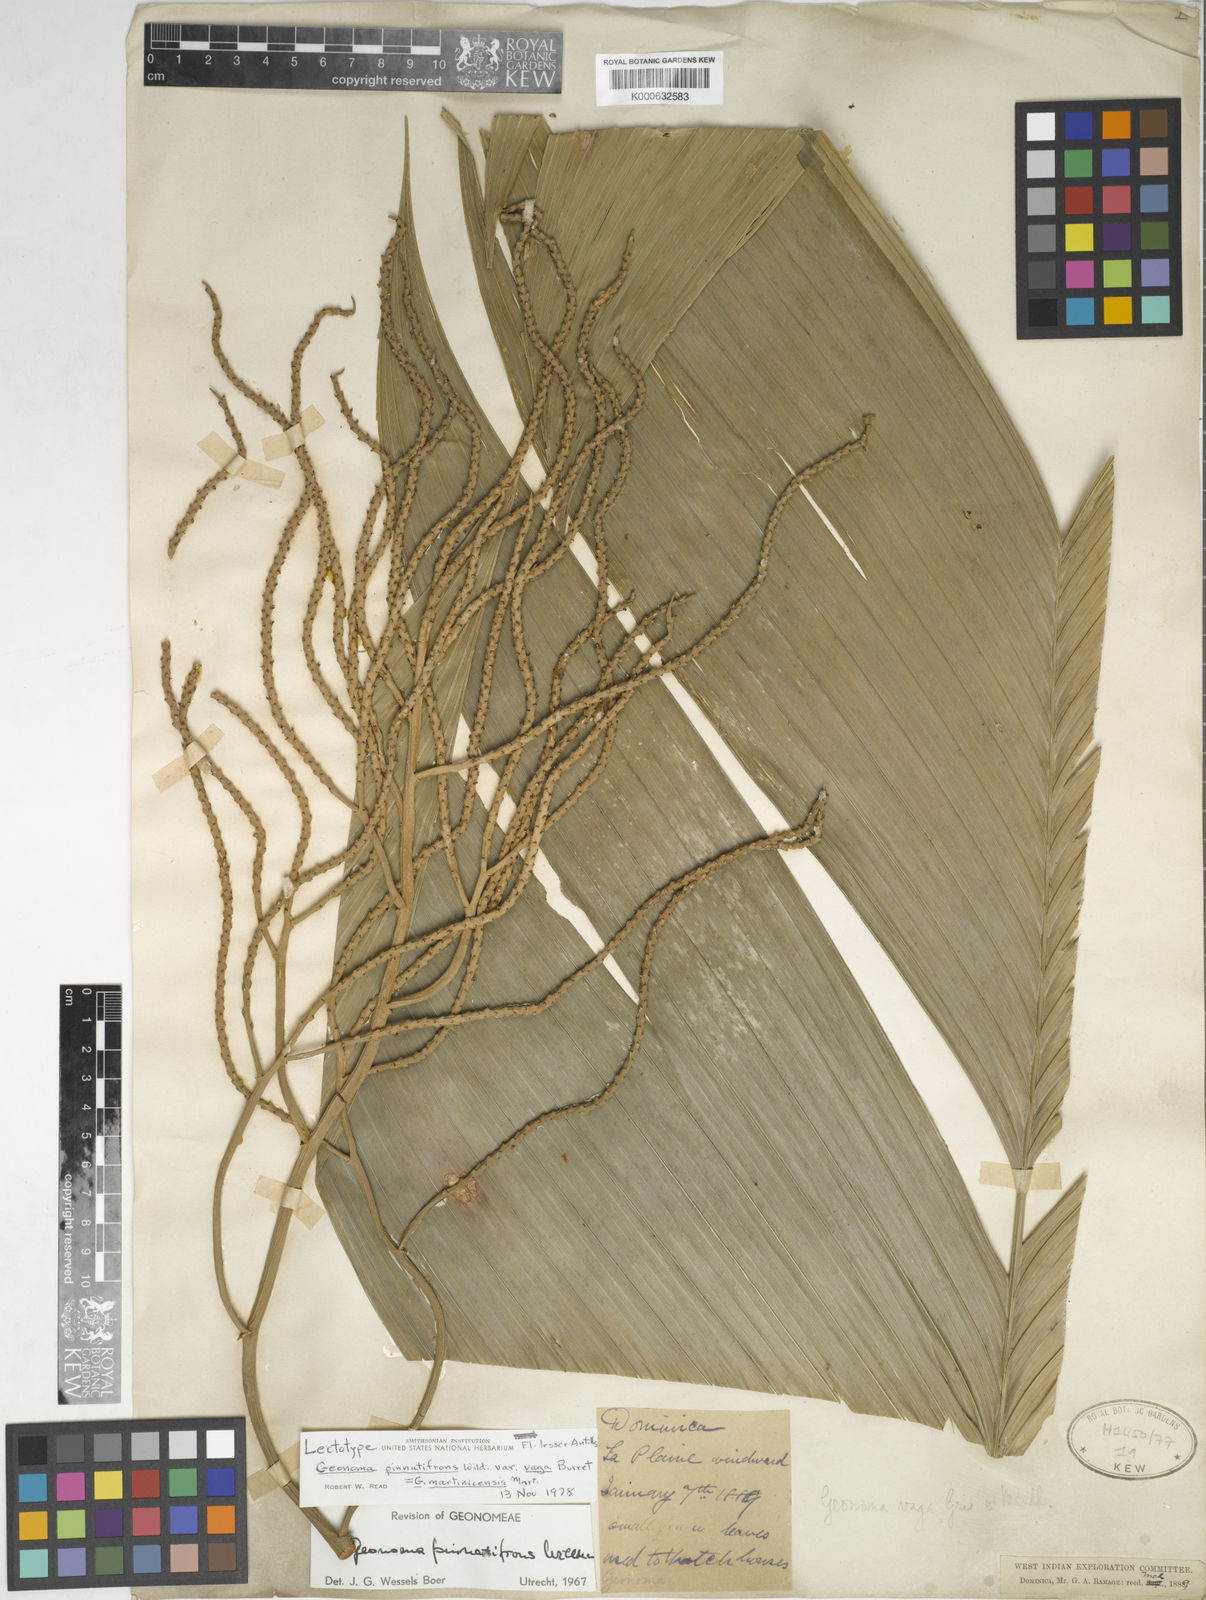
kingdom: Plantae
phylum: Tracheophyta
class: Liliopsida
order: Arecales
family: Arecaceae
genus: Geonoma
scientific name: Geonoma pinnatifrons
